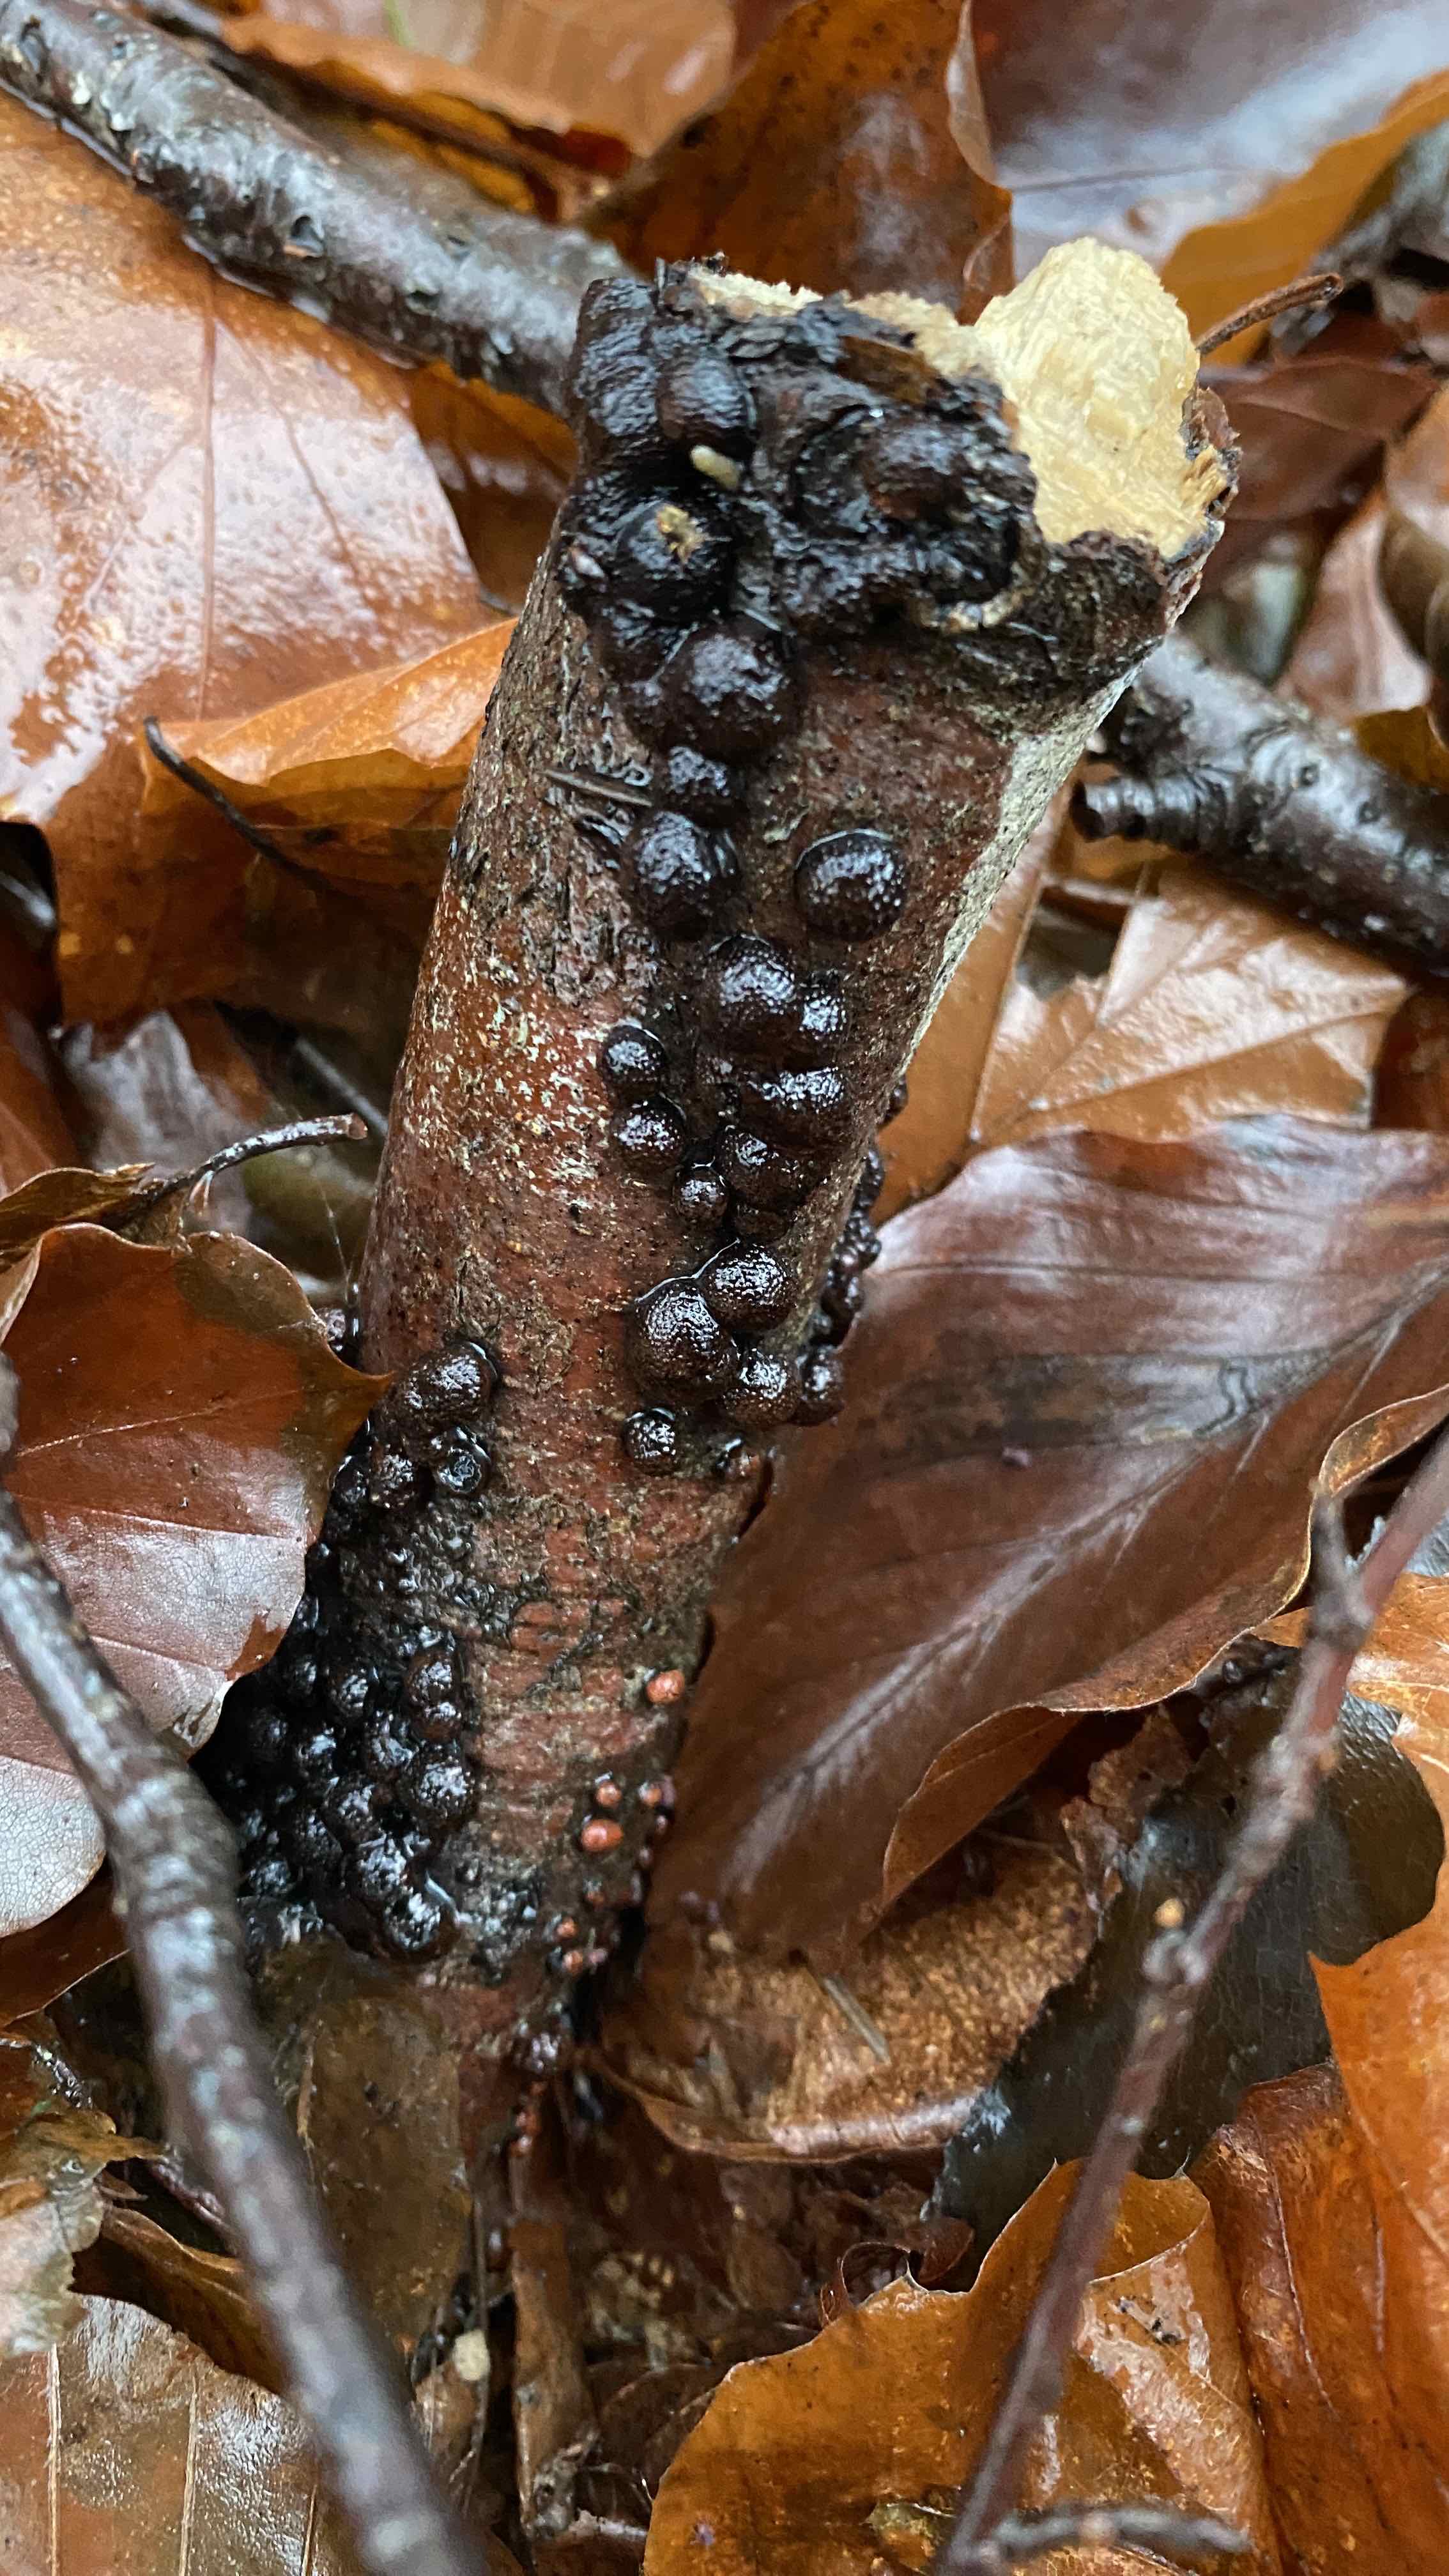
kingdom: Fungi
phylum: Ascomycota
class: Sordariomycetes
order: Xylariales
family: Hypoxylaceae
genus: Hypoxylon
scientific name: Hypoxylon fragiforme
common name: kuljordbær
